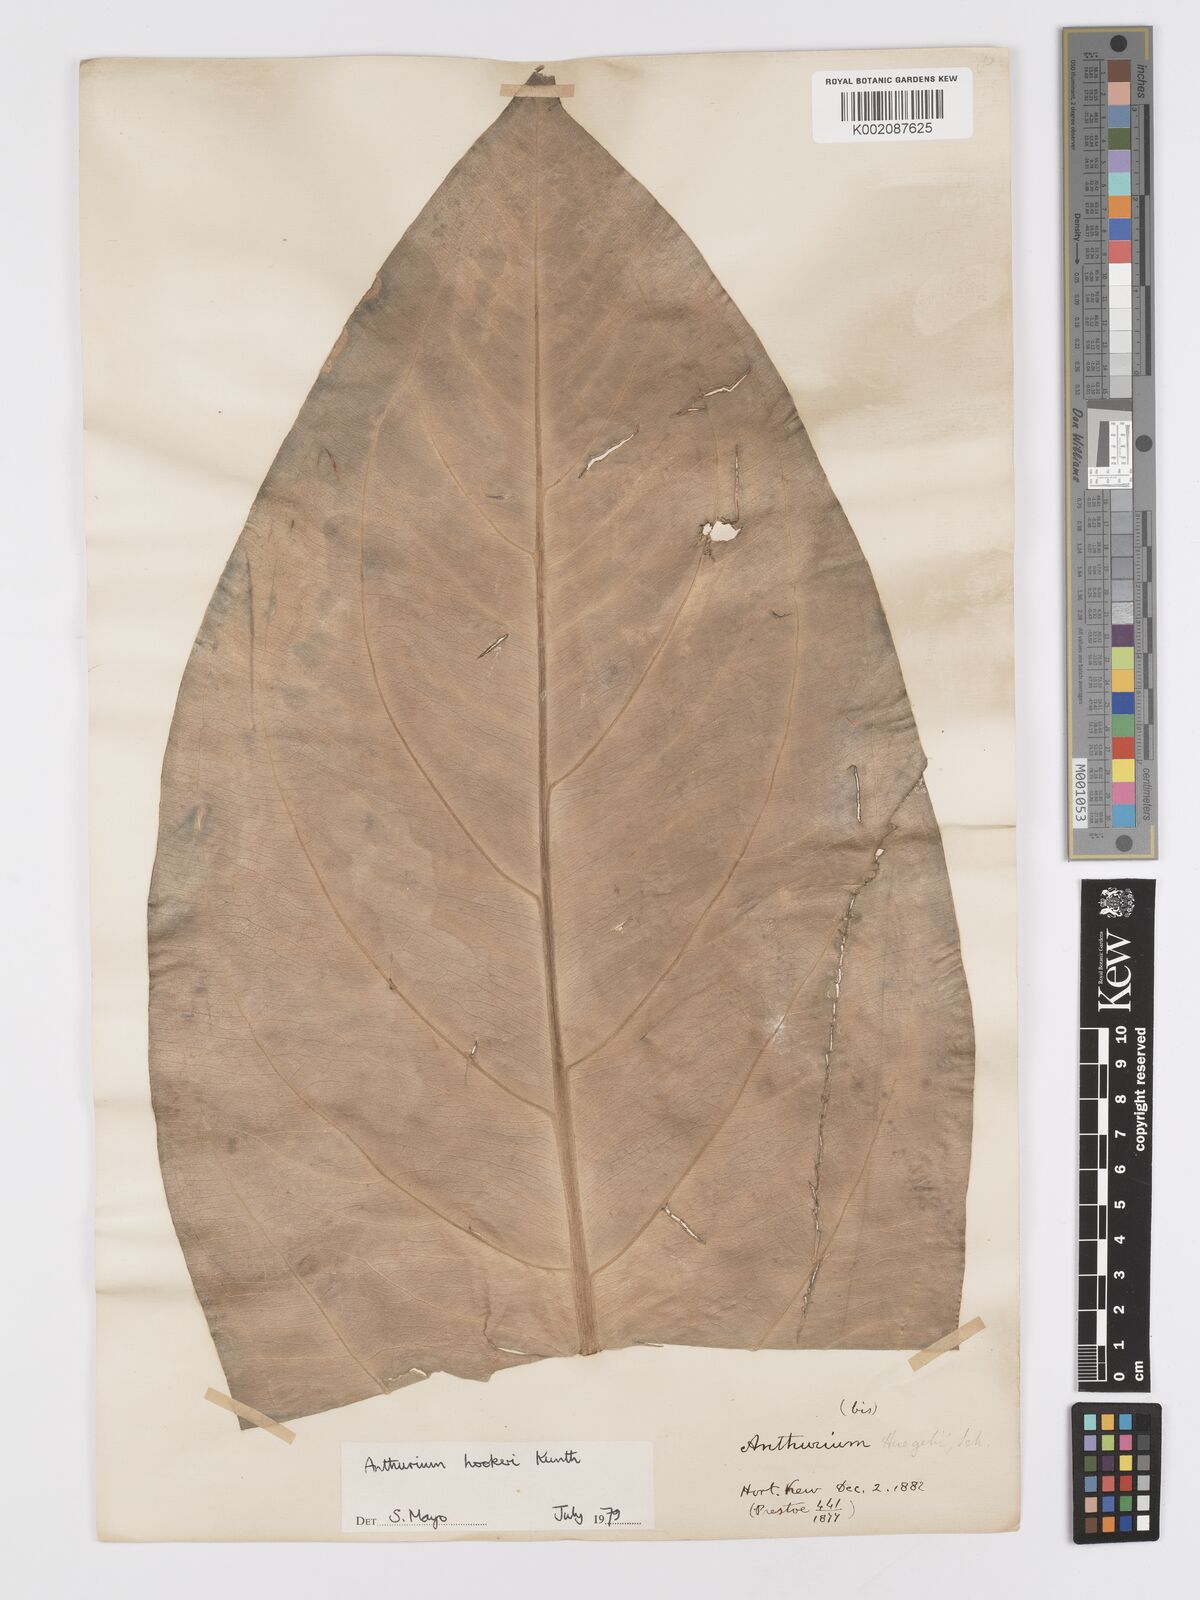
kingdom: Plantae
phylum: Tracheophyta
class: Liliopsida
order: Alismatales
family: Araceae
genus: Anthurium
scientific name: Anthurium hookeri
